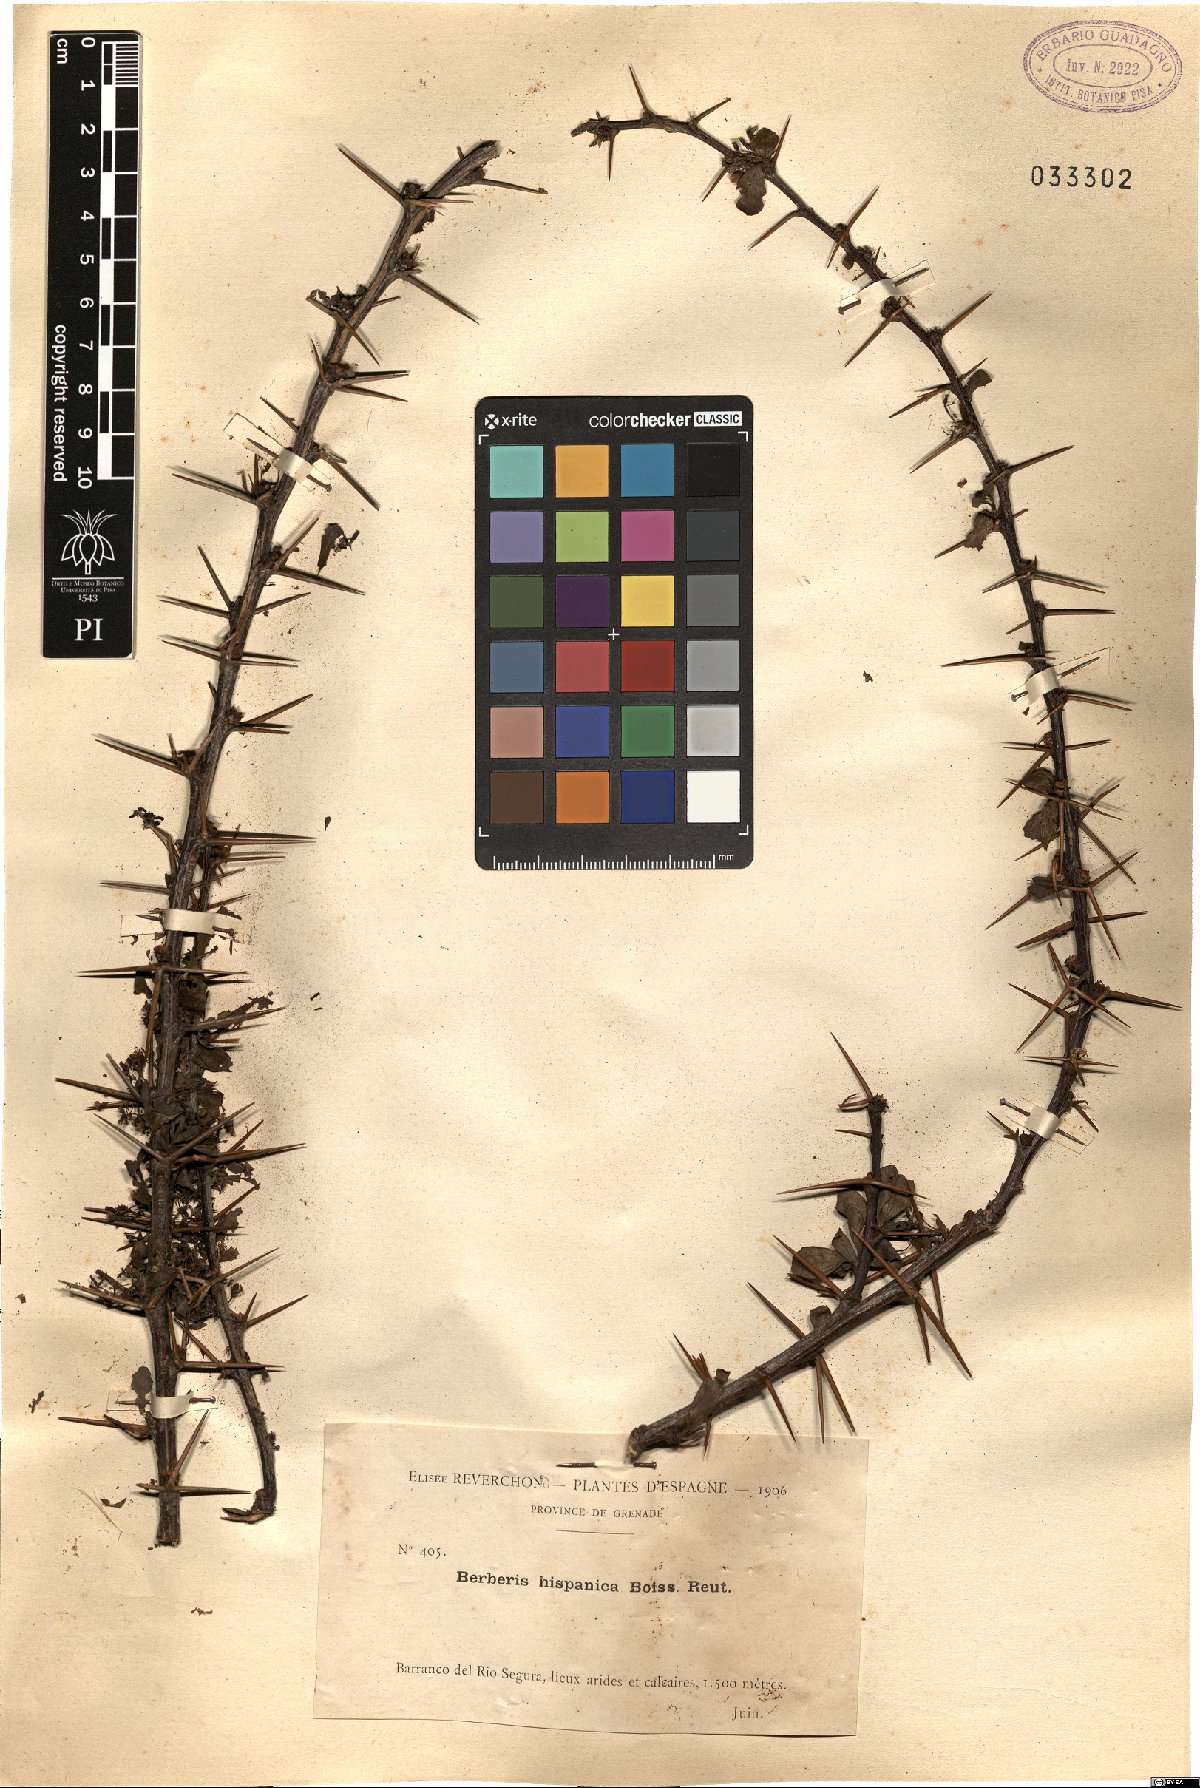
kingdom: Plantae
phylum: Tracheophyta
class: Magnoliopsida
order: Ranunculales
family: Berberidaceae
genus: Berberis
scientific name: Berberis hispanica
